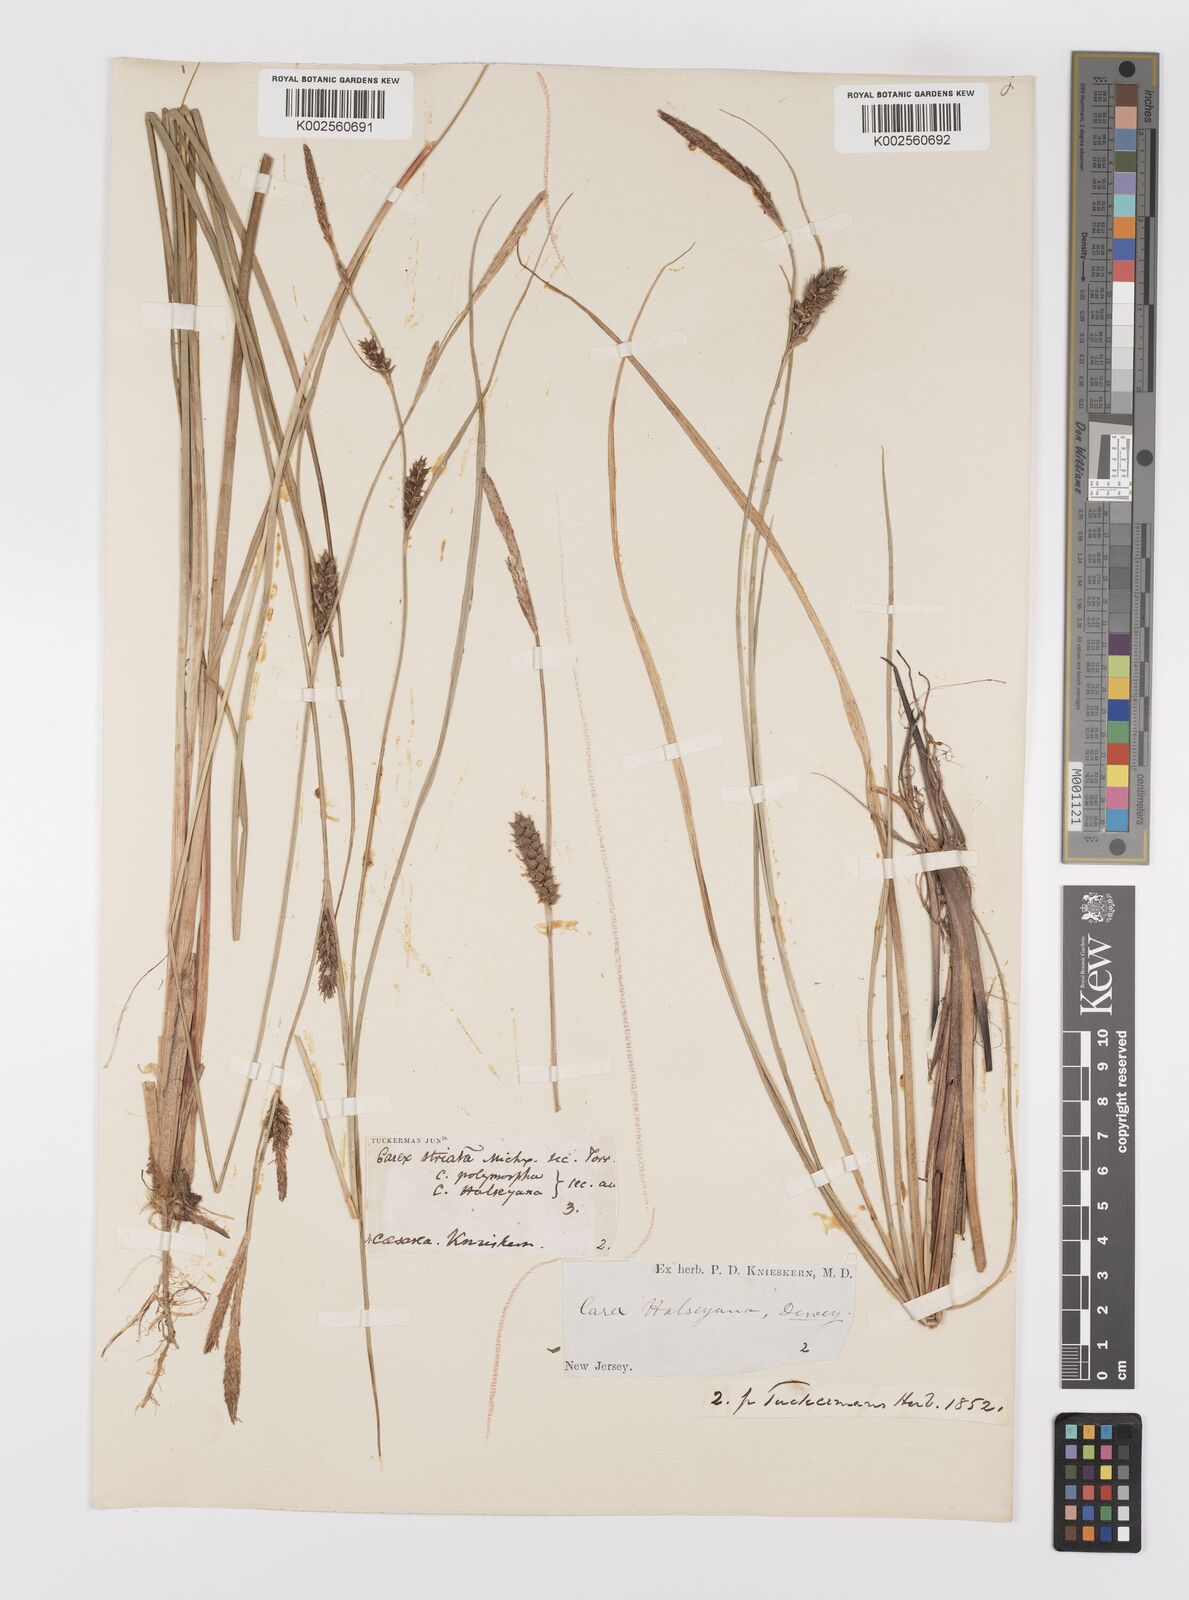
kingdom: Plantae
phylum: Tracheophyta
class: Liliopsida
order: Poales
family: Cyperaceae
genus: Carex
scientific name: Carex striata
